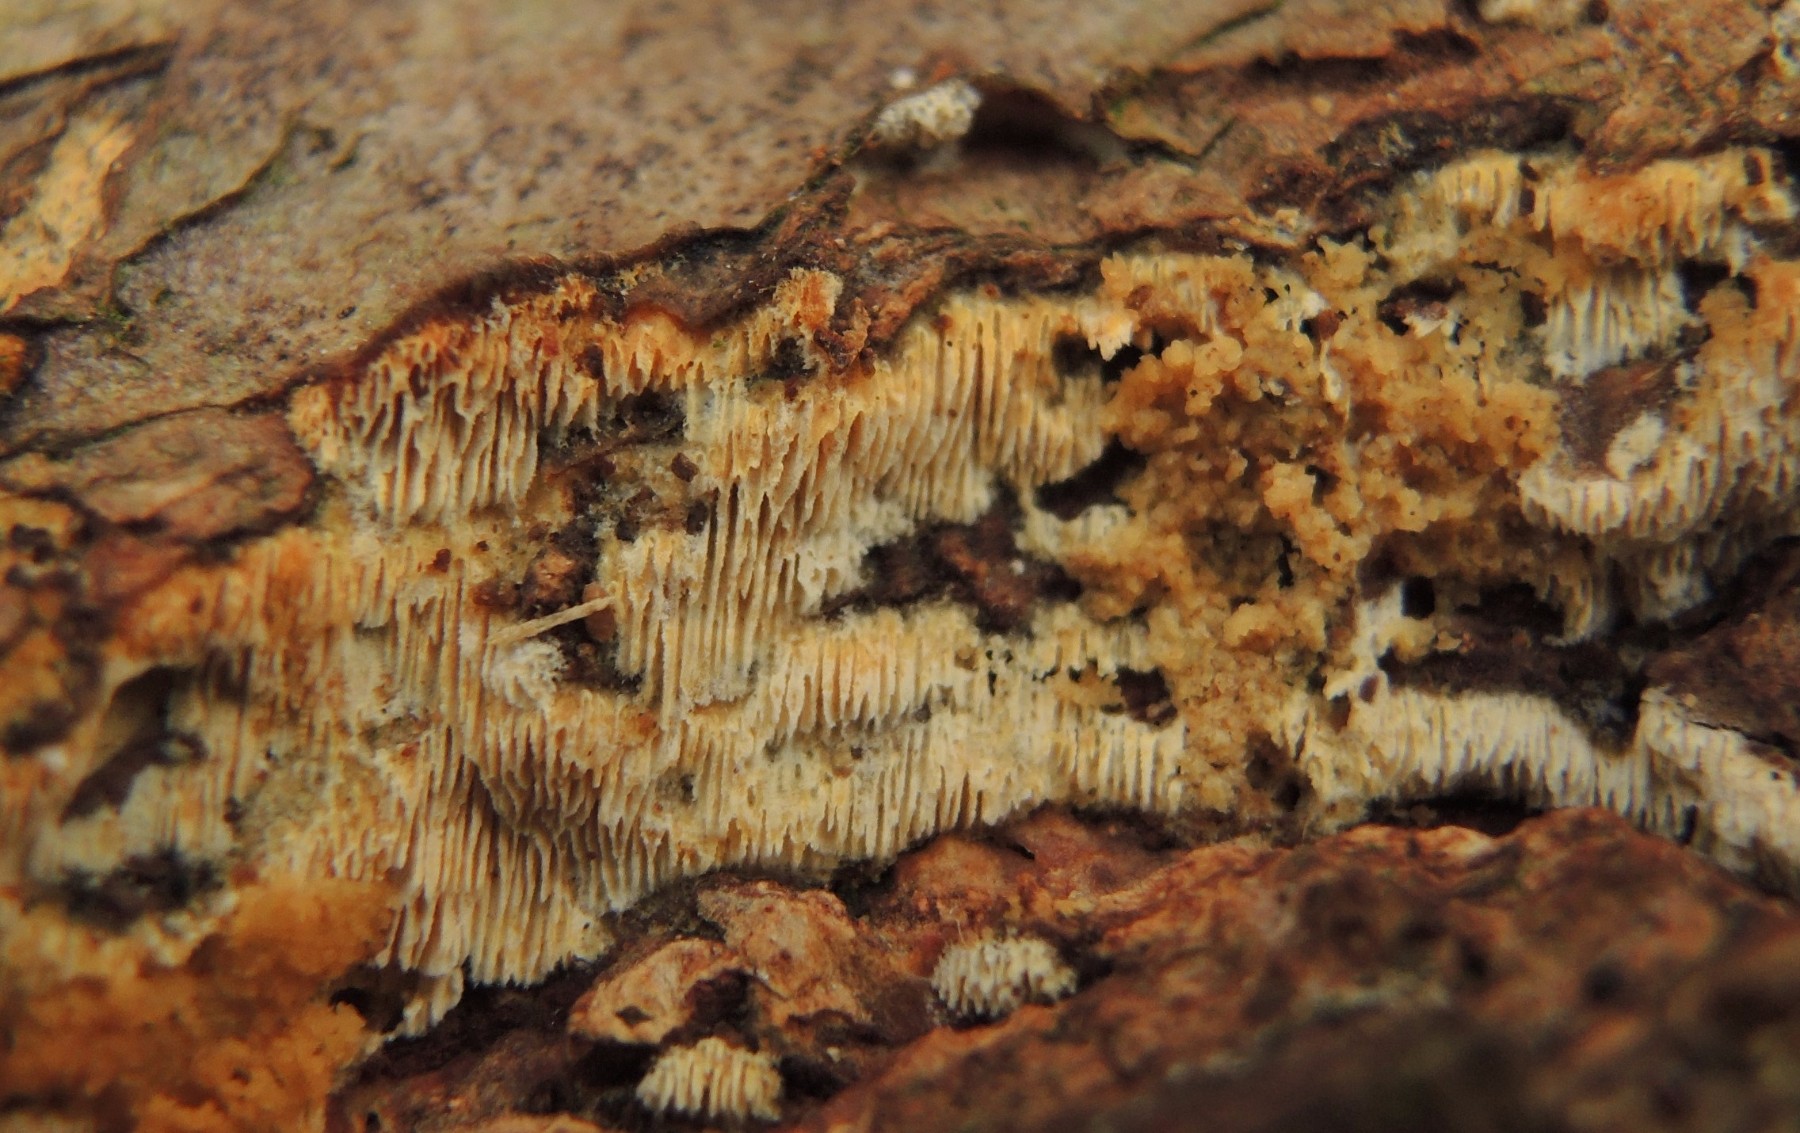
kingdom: Fungi
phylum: Basidiomycota
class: Agaricomycetes
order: Hymenochaetales
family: Schizoporaceae
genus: Xylodon
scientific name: Xylodon subtropicus
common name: labyrint-tandsvamp
